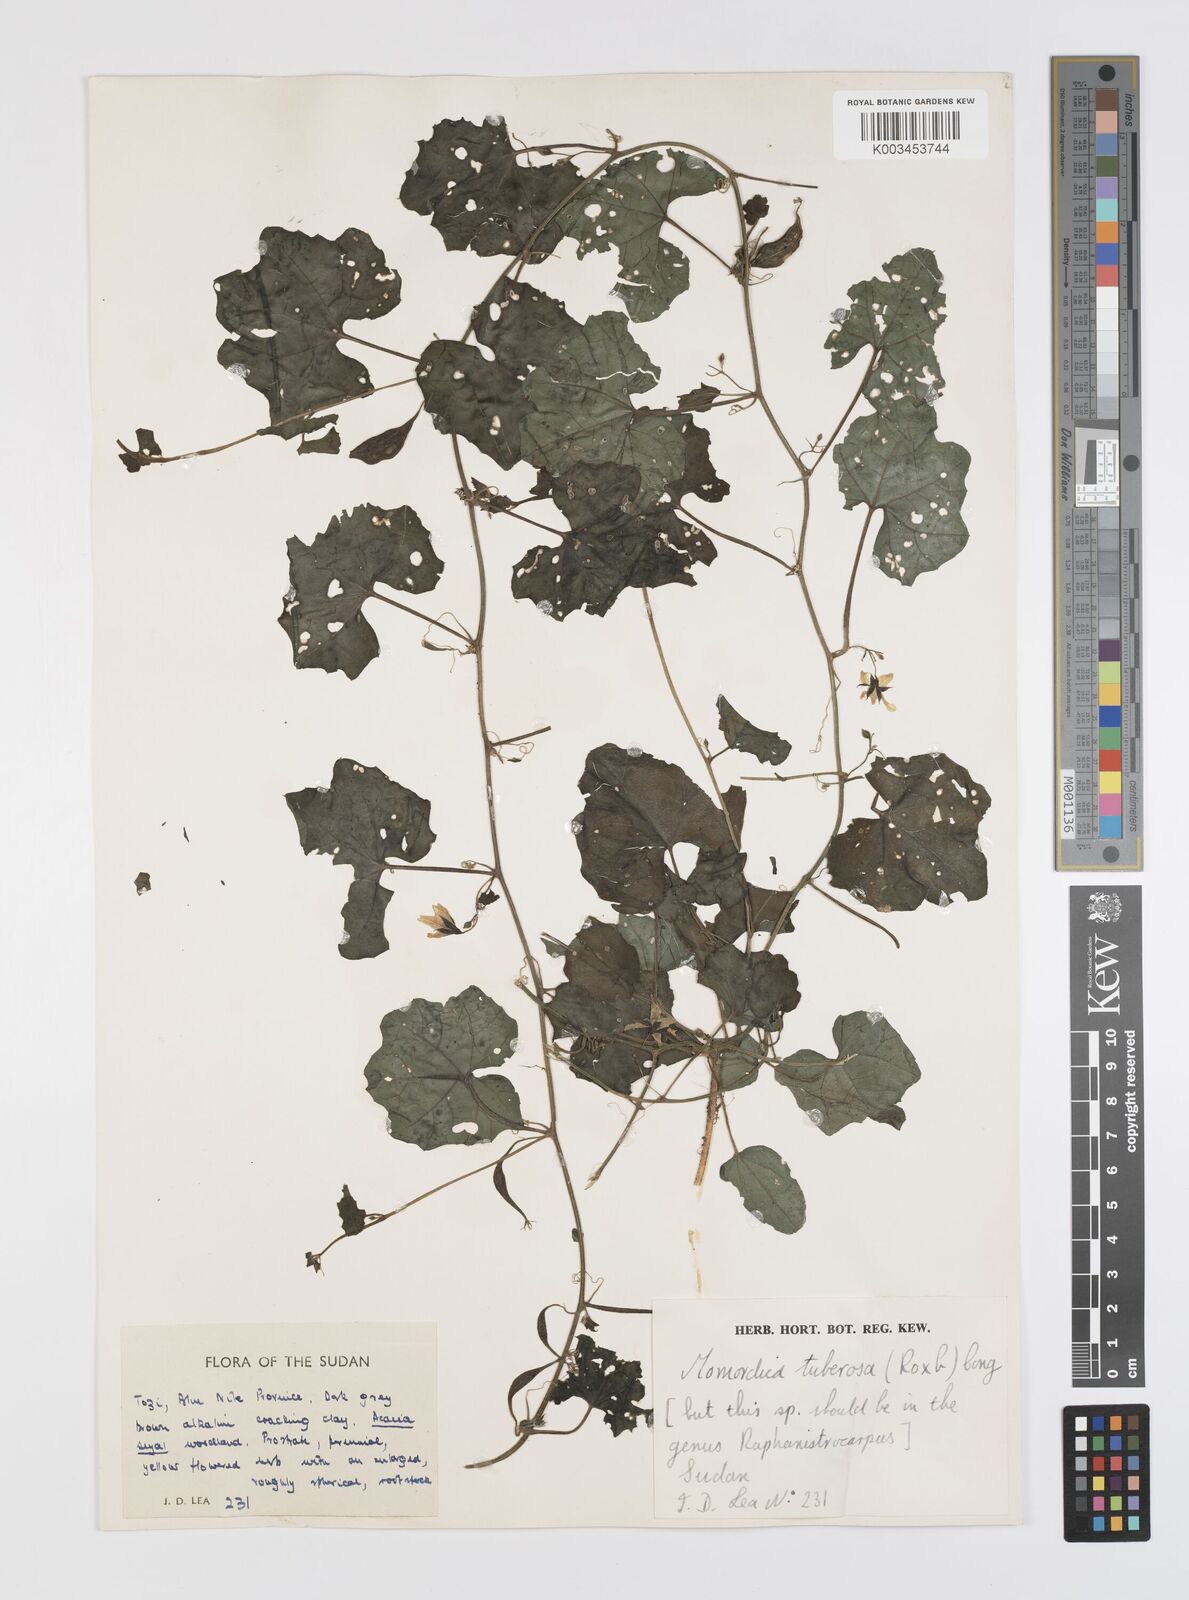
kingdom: Plantae
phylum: Tracheophyta
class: Magnoliopsida
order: Cucurbitales
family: Cucurbitaceae
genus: Momordica
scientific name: Momordica multiflora
